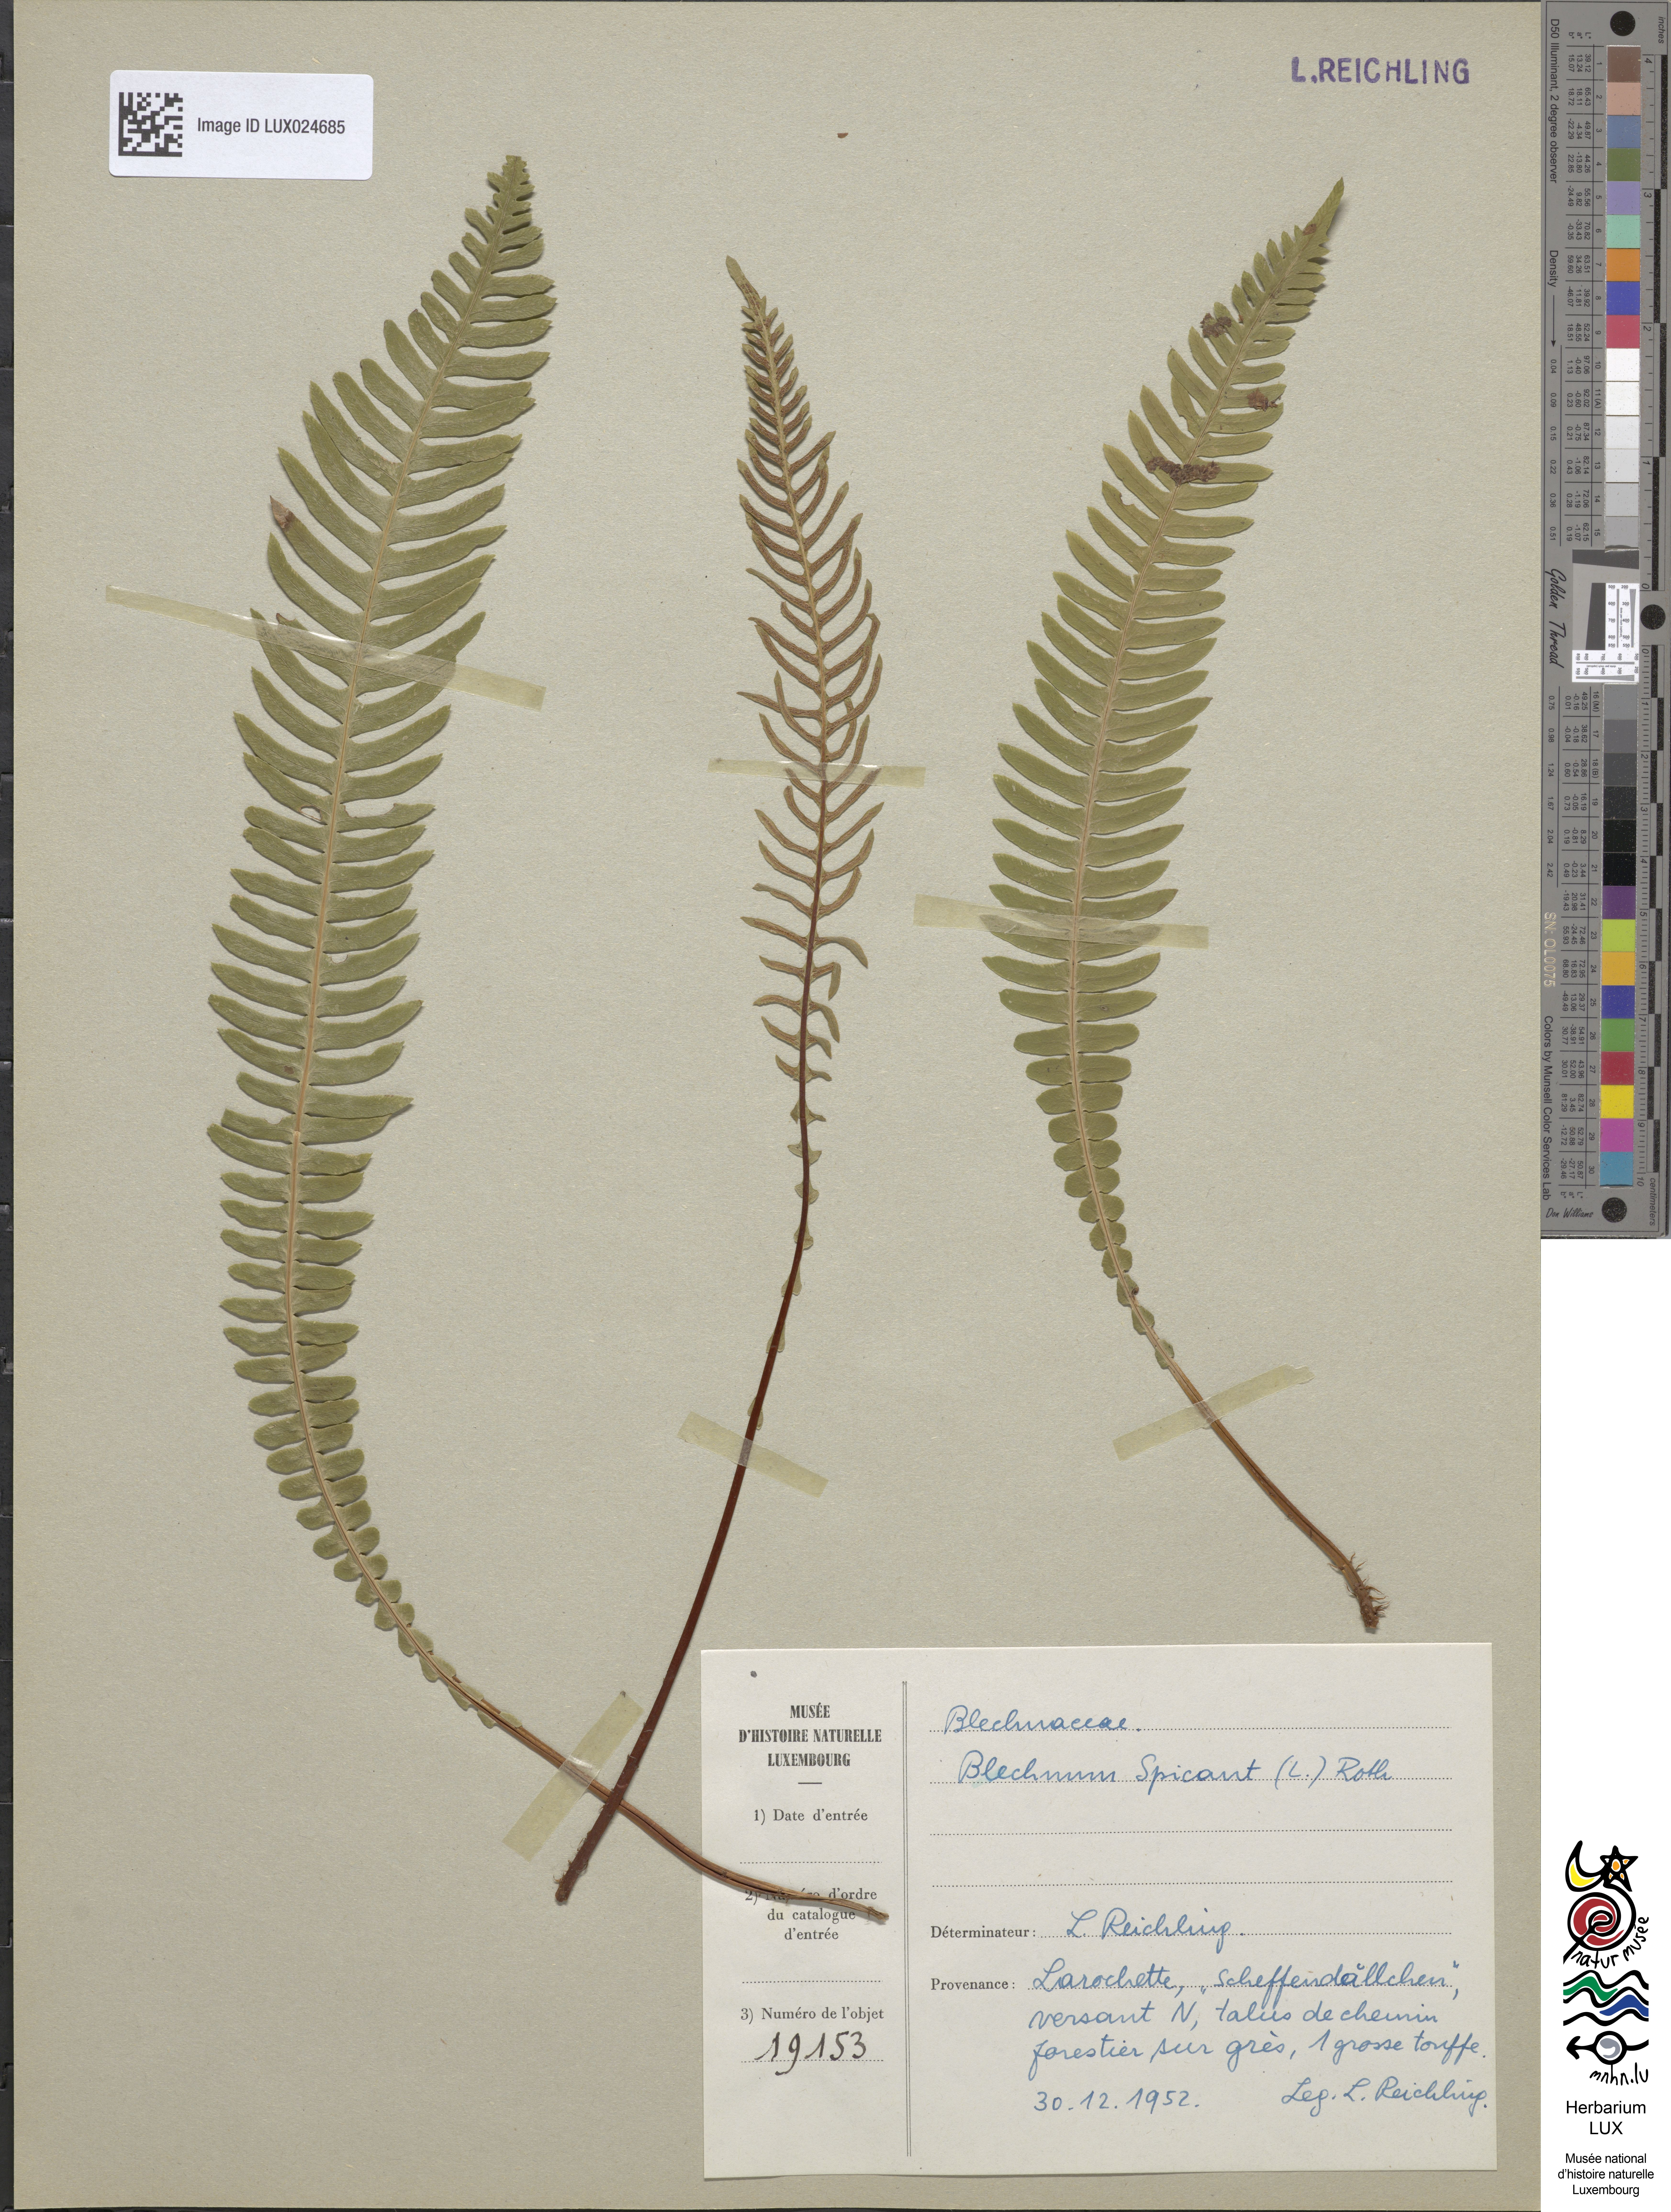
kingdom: Plantae
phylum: Tracheophyta
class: Polypodiopsida
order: Polypodiales
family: Blechnaceae
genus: Struthiopteris
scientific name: Struthiopteris spicant
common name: Deer fern
